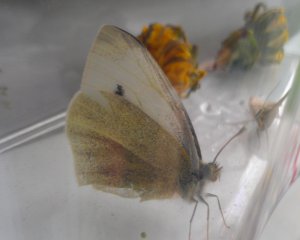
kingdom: Animalia
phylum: Arthropoda
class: Insecta
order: Lepidoptera
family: Pieridae
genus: Pieris
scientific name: Pieris rapae
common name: Cabbage White
